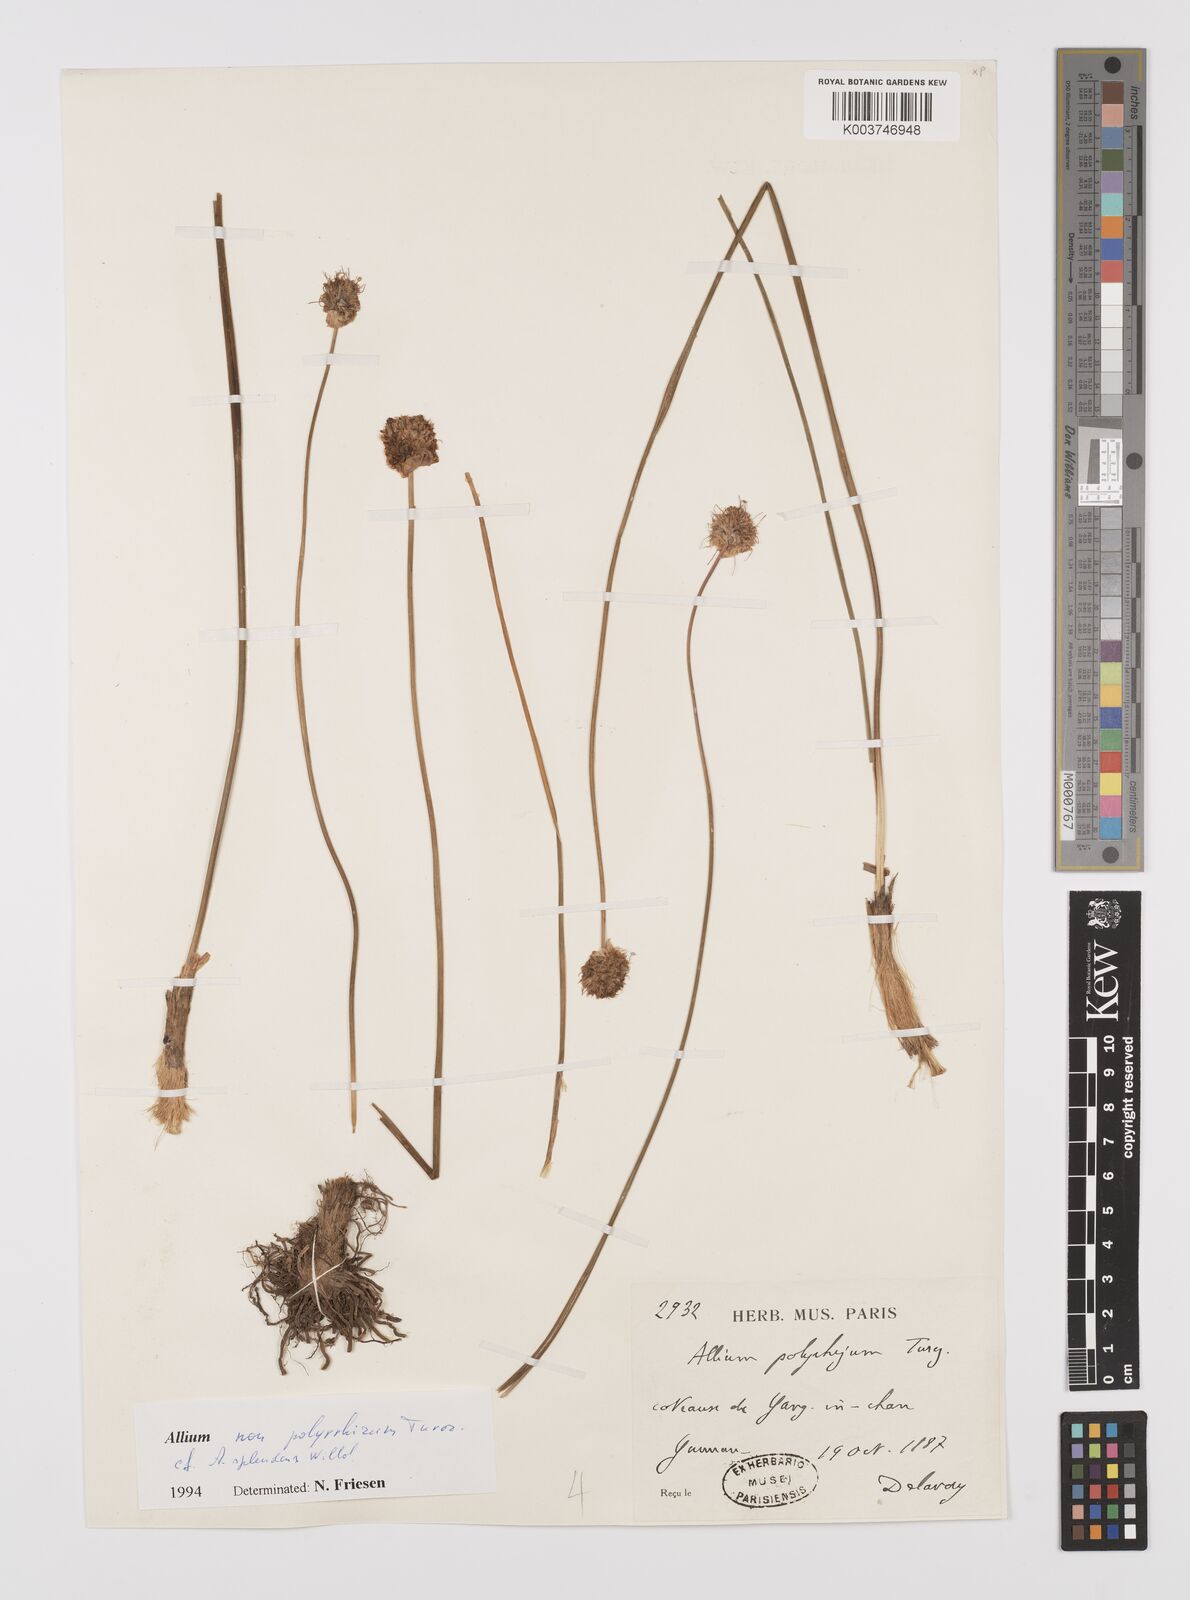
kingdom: Plantae
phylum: Tracheophyta
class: Liliopsida
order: Asparagales
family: Amaryllidaceae
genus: Allium
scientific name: Allium
